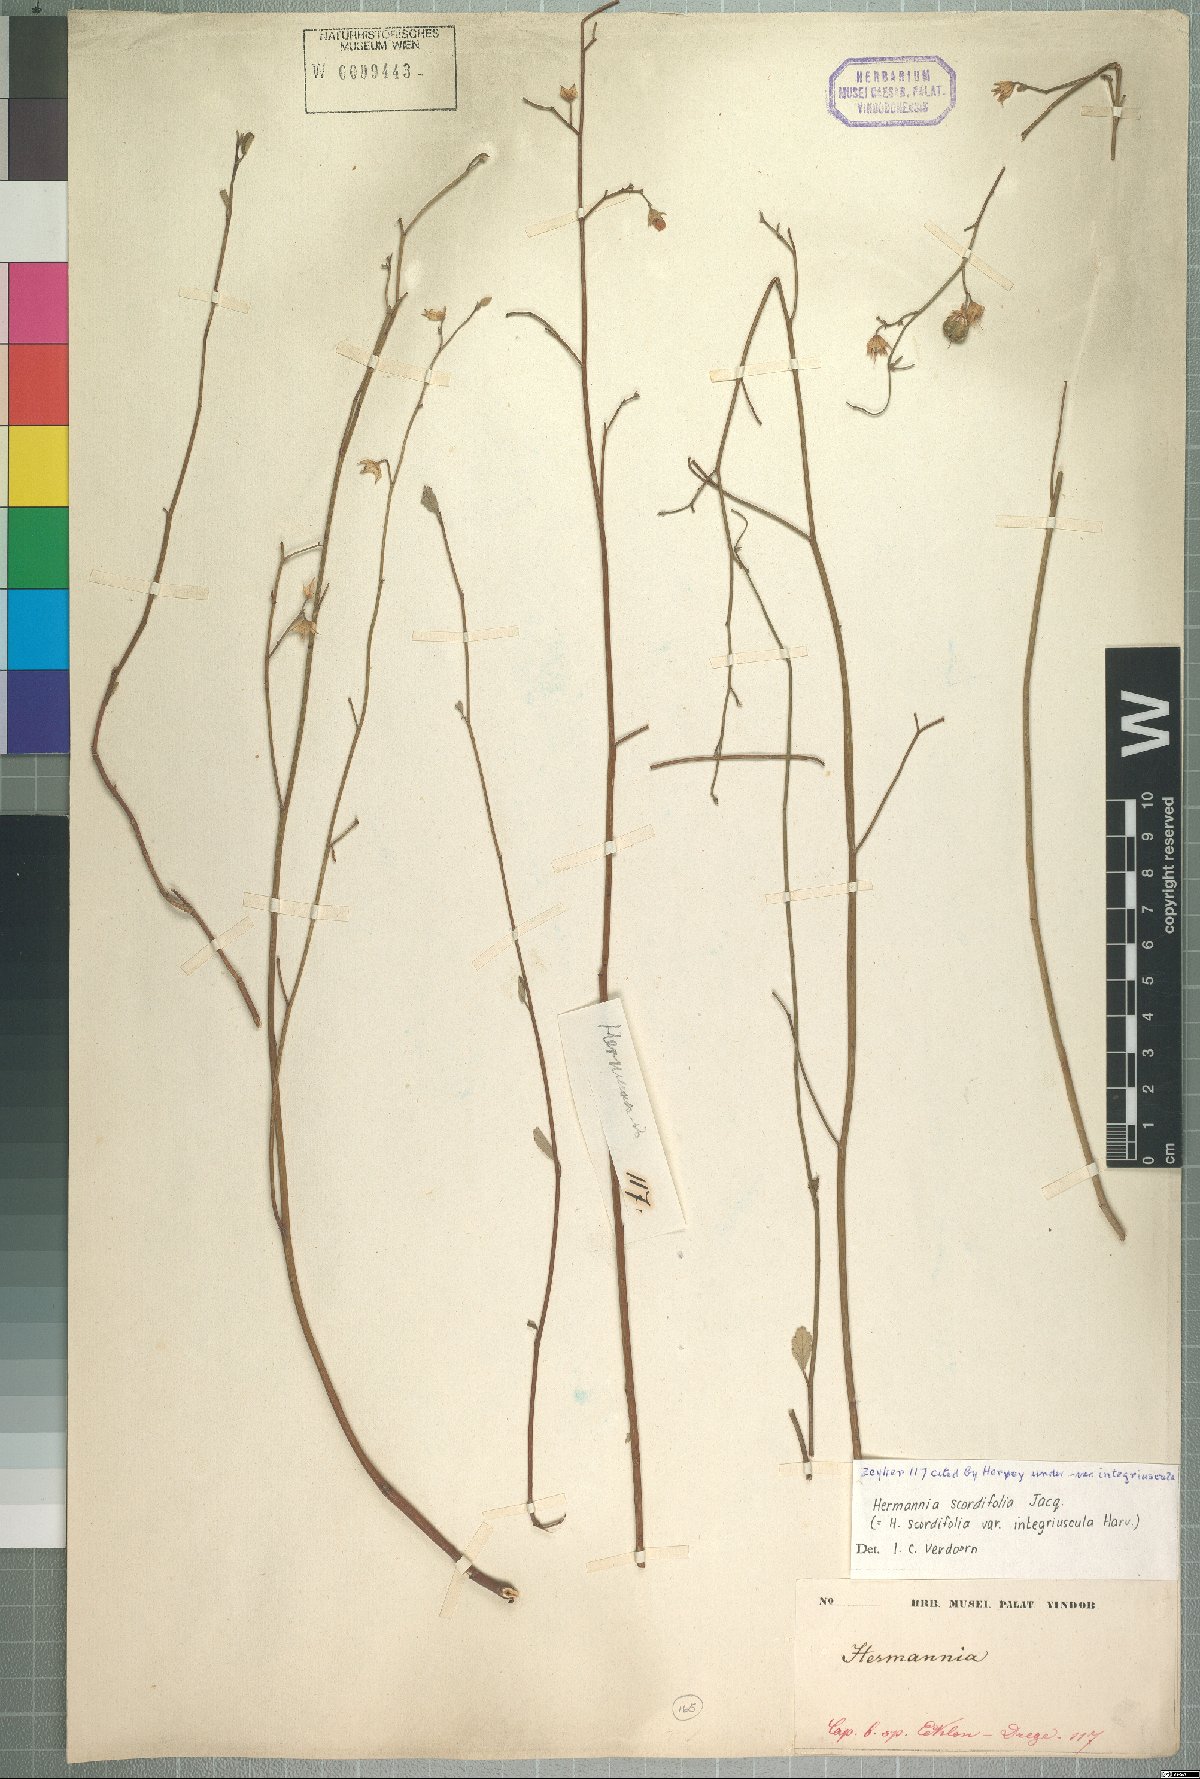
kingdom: Plantae
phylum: Tracheophyta
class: Magnoliopsida
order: Malvales
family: Malvaceae
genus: Hermannia
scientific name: Hermannia scordifolia
